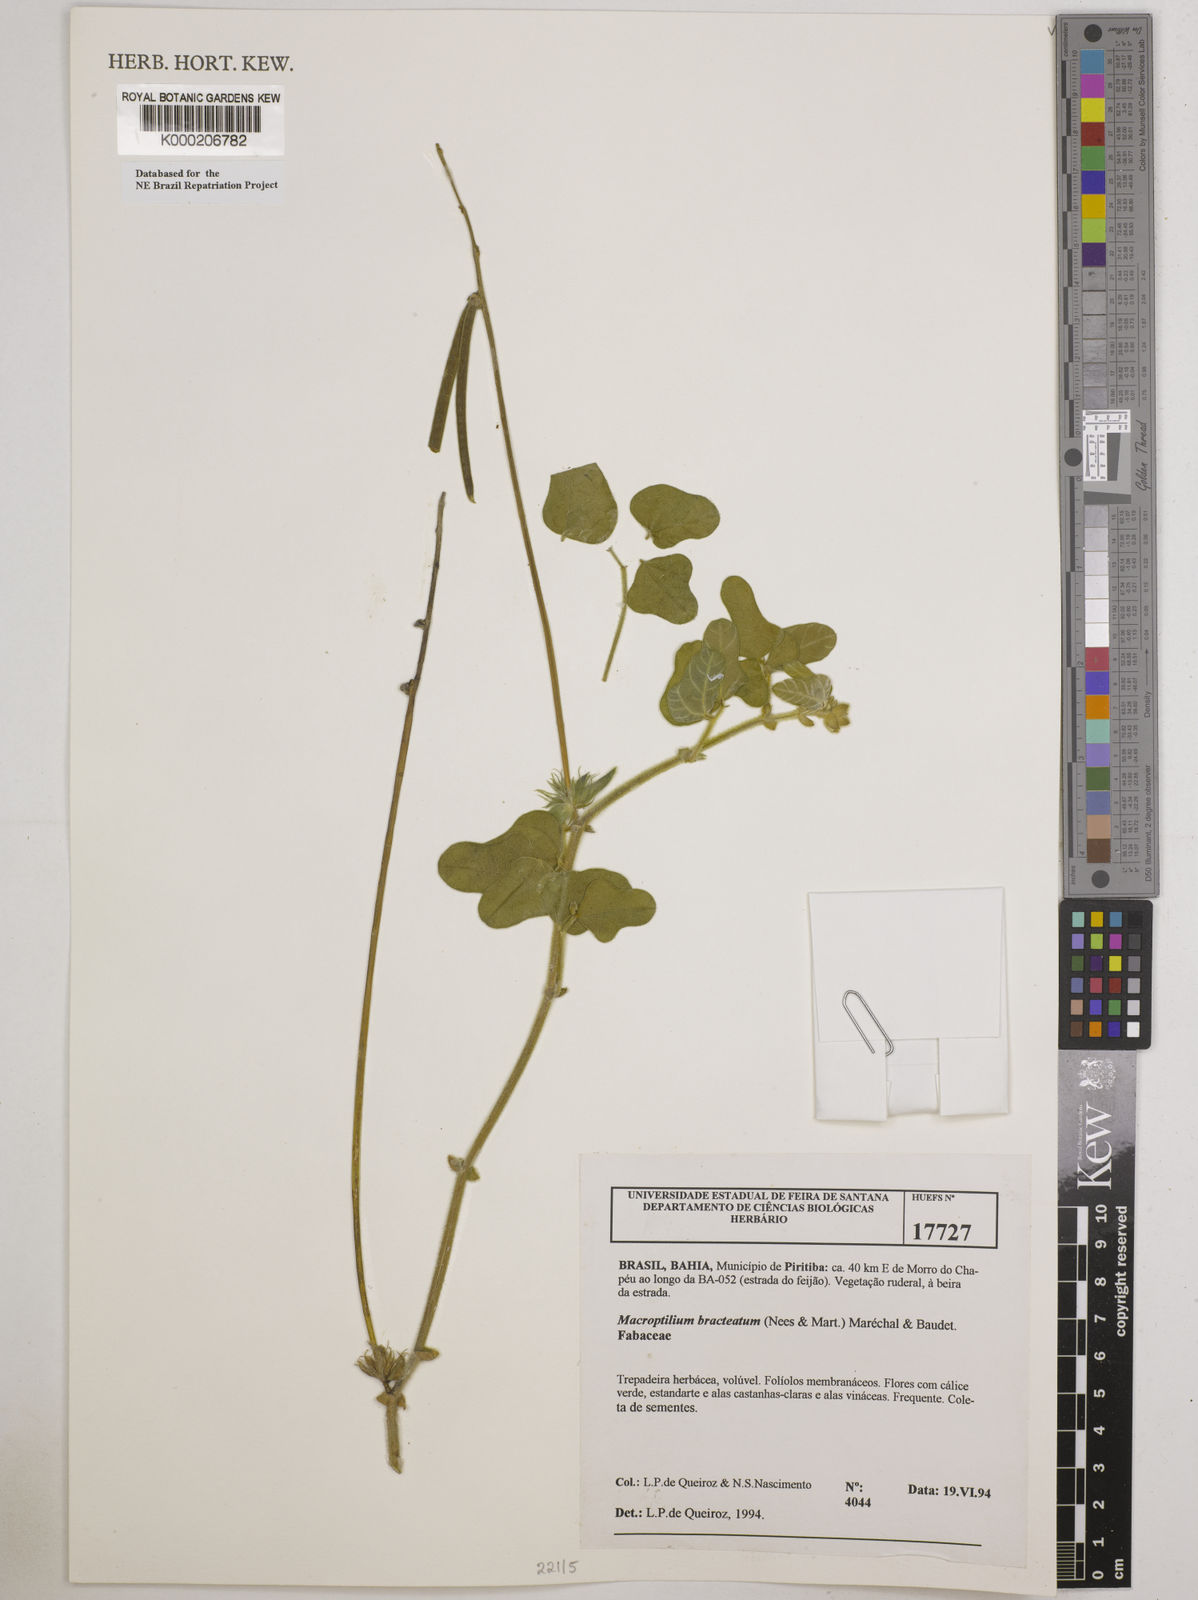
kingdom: Plantae
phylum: Tracheophyta
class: Magnoliopsida
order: Fabales
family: Fabaceae
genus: Macroptilium
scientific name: Macroptilium
